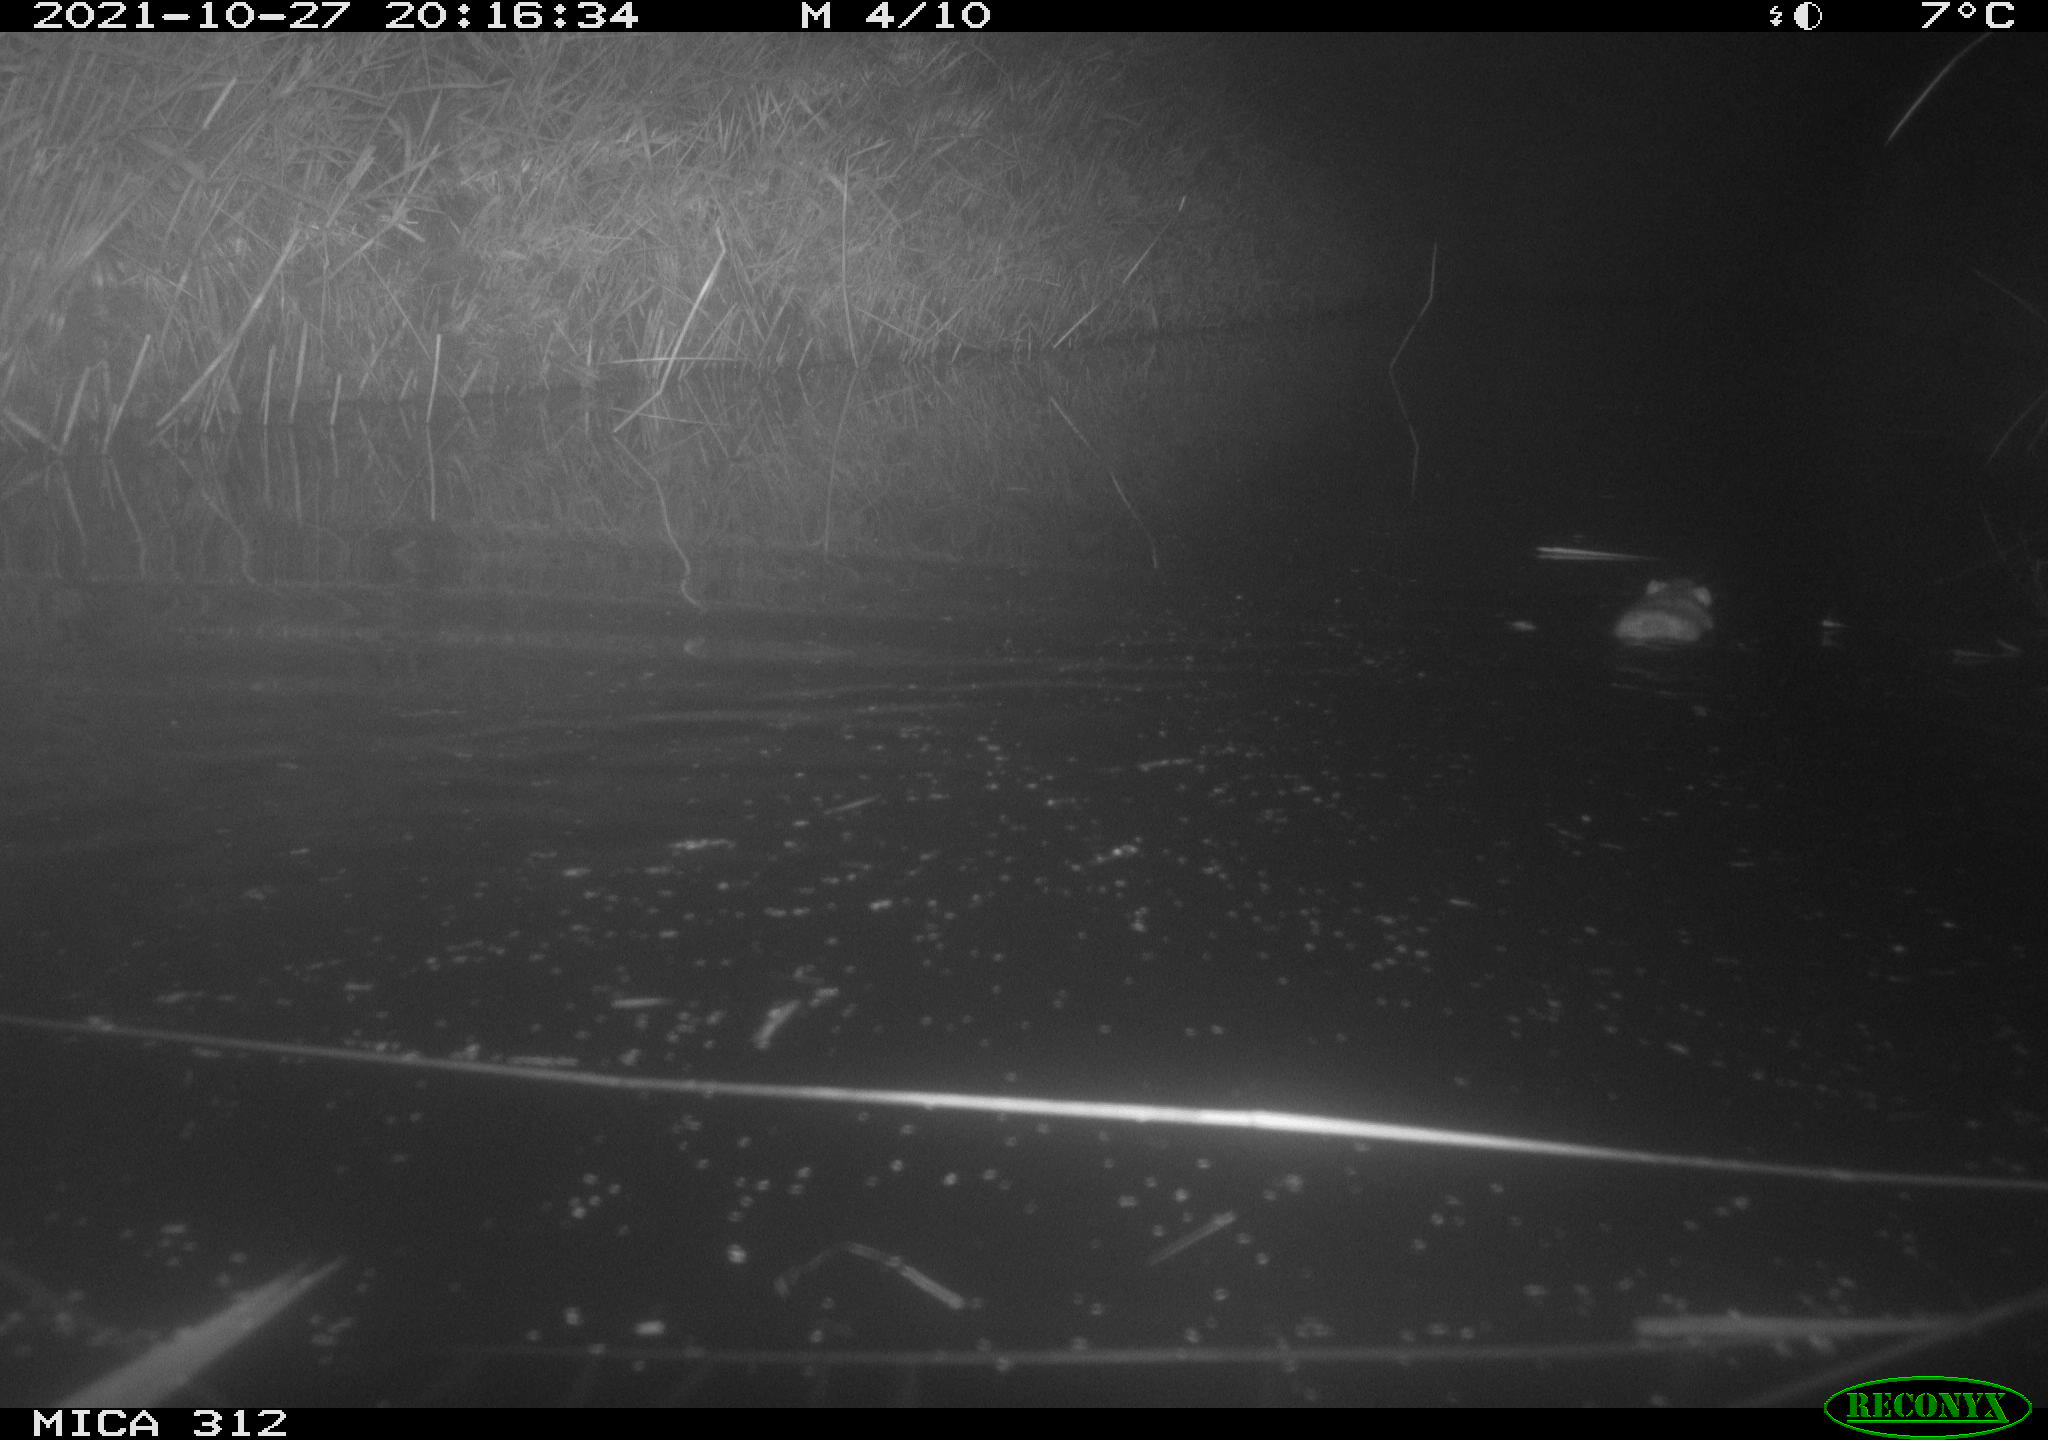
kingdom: Animalia
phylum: Chordata
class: Mammalia
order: Rodentia
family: Muridae
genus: Rattus
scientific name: Rattus norvegicus
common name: Brown rat
